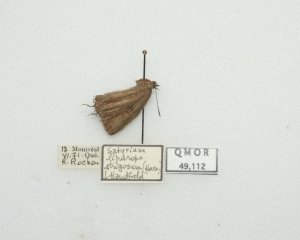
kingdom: Animalia
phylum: Arthropoda
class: Insecta
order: Lepidoptera
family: Lycaenidae
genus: Satyrium
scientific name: Satyrium liparops
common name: Striped Hairstreak
